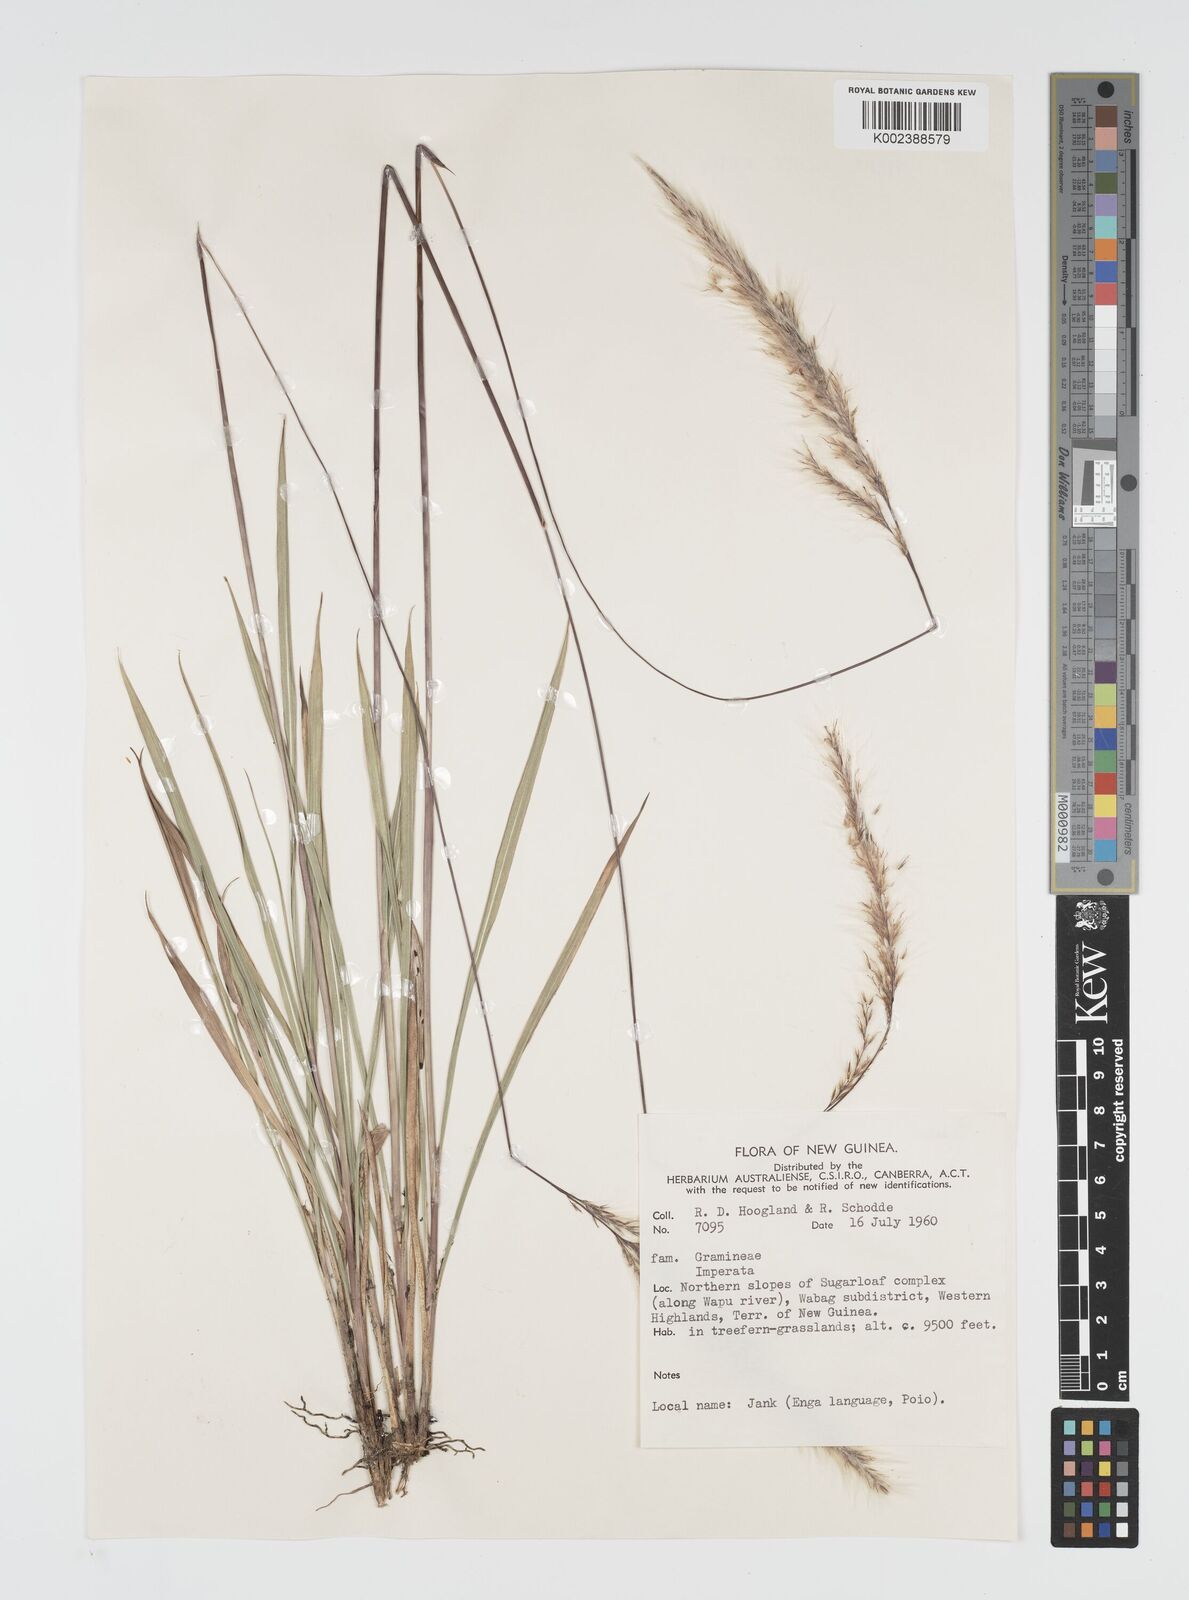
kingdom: Plantae
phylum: Tracheophyta
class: Liliopsida
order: Poales
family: Poaceae
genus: Imperata
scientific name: Imperata cylindrica
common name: Cogongrass
